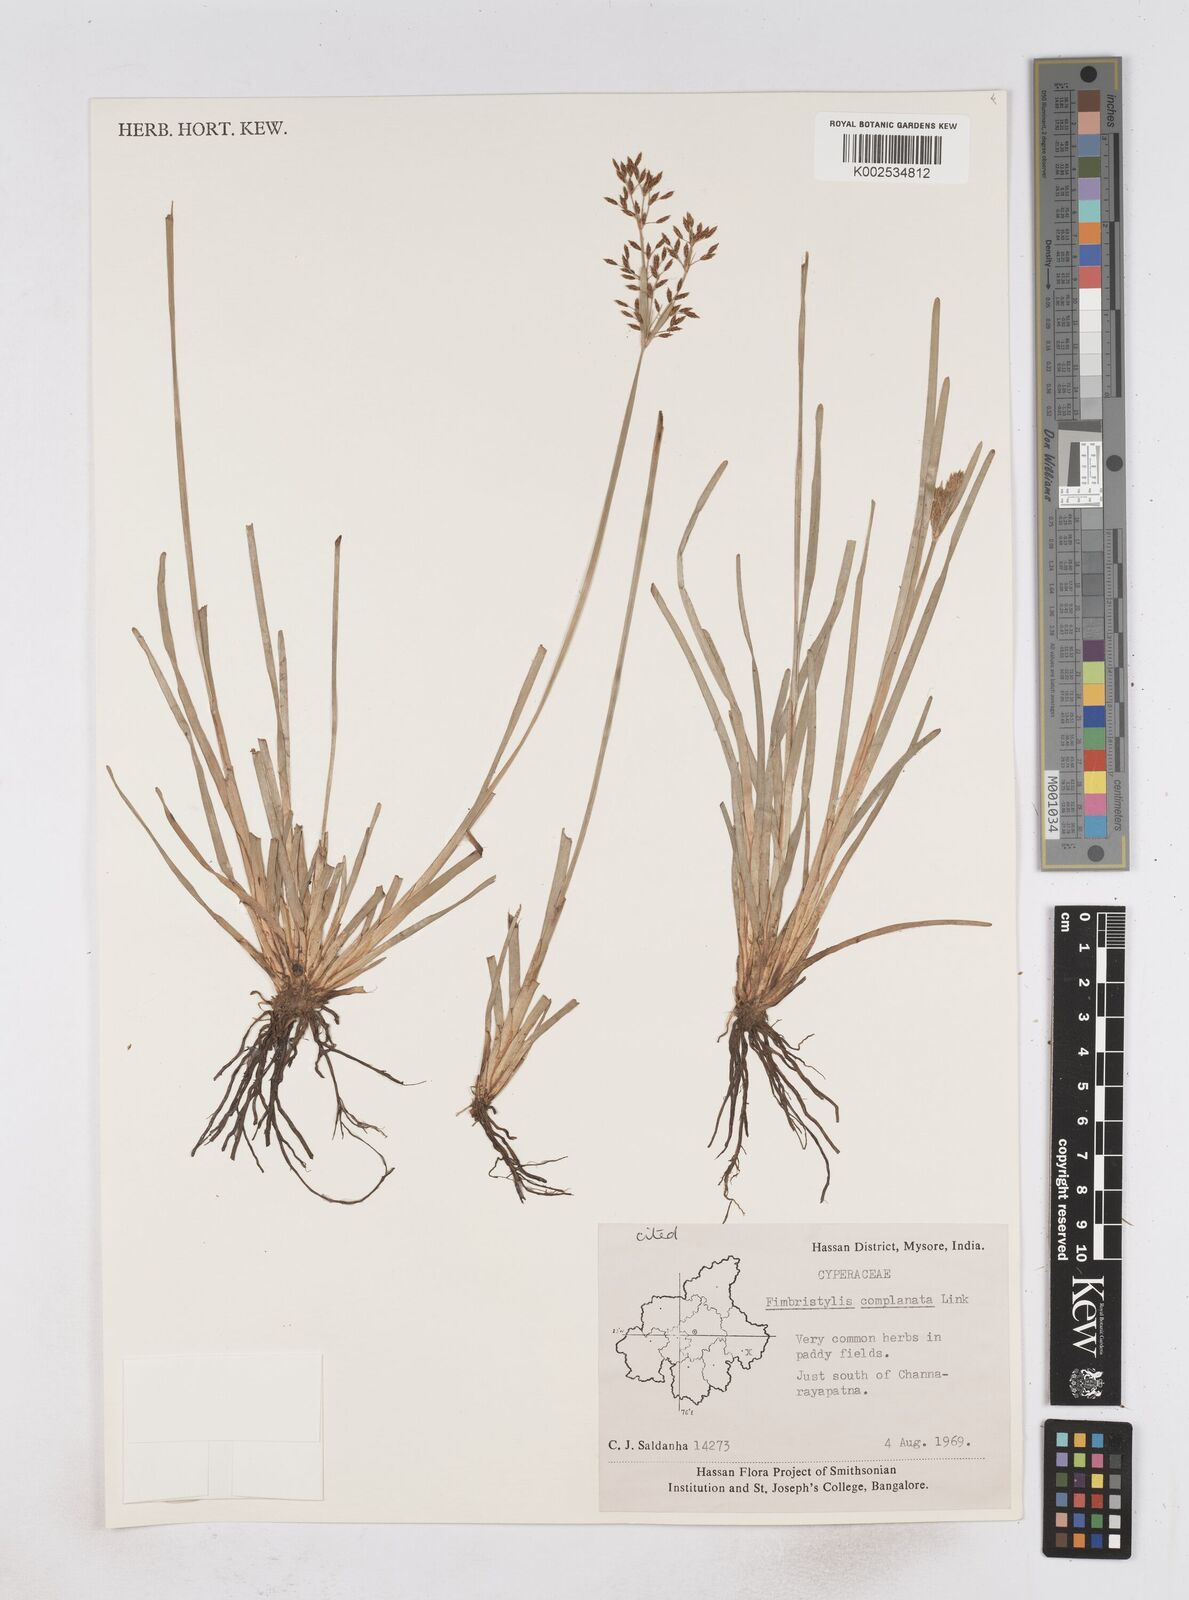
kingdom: Plantae
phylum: Tracheophyta
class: Liliopsida
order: Poales
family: Cyperaceae
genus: Fimbristylis
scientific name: Fimbristylis complanata
